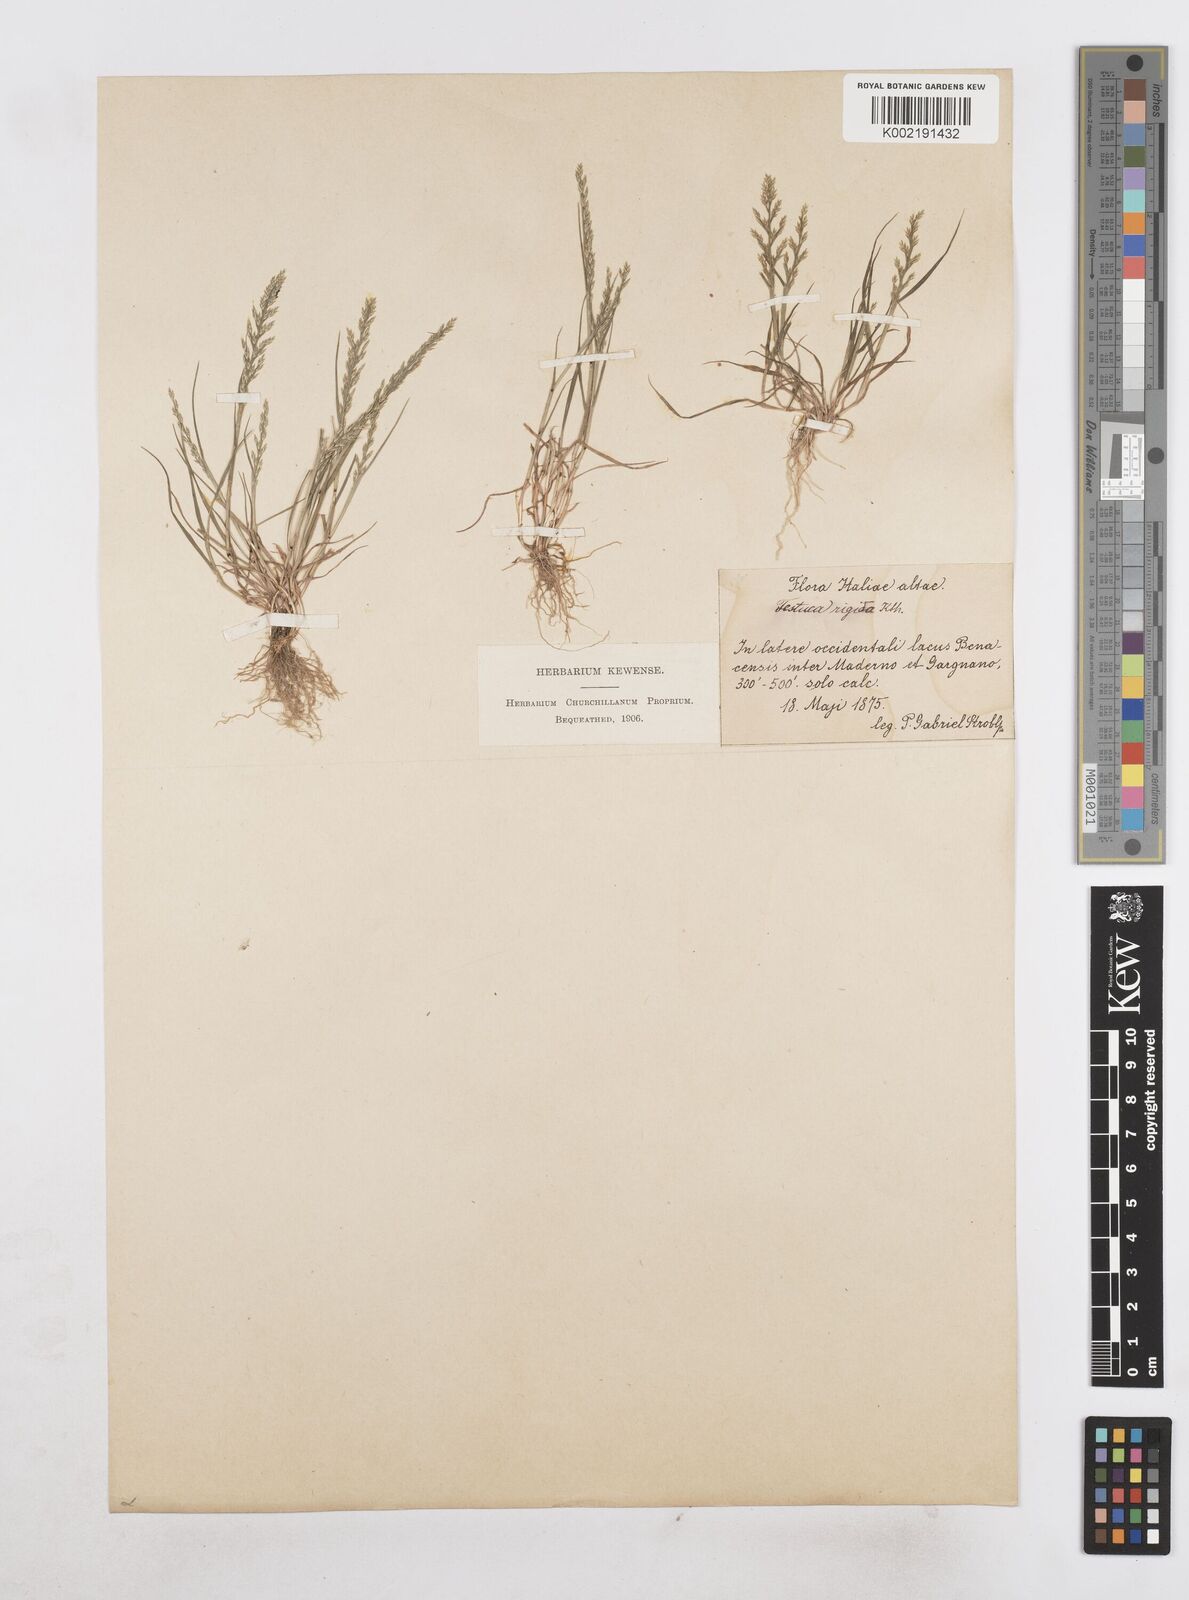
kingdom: Plantae
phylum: Tracheophyta
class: Liliopsida
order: Poales
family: Poaceae
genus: Catapodium
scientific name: Catapodium rigidum
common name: Fern-grass
